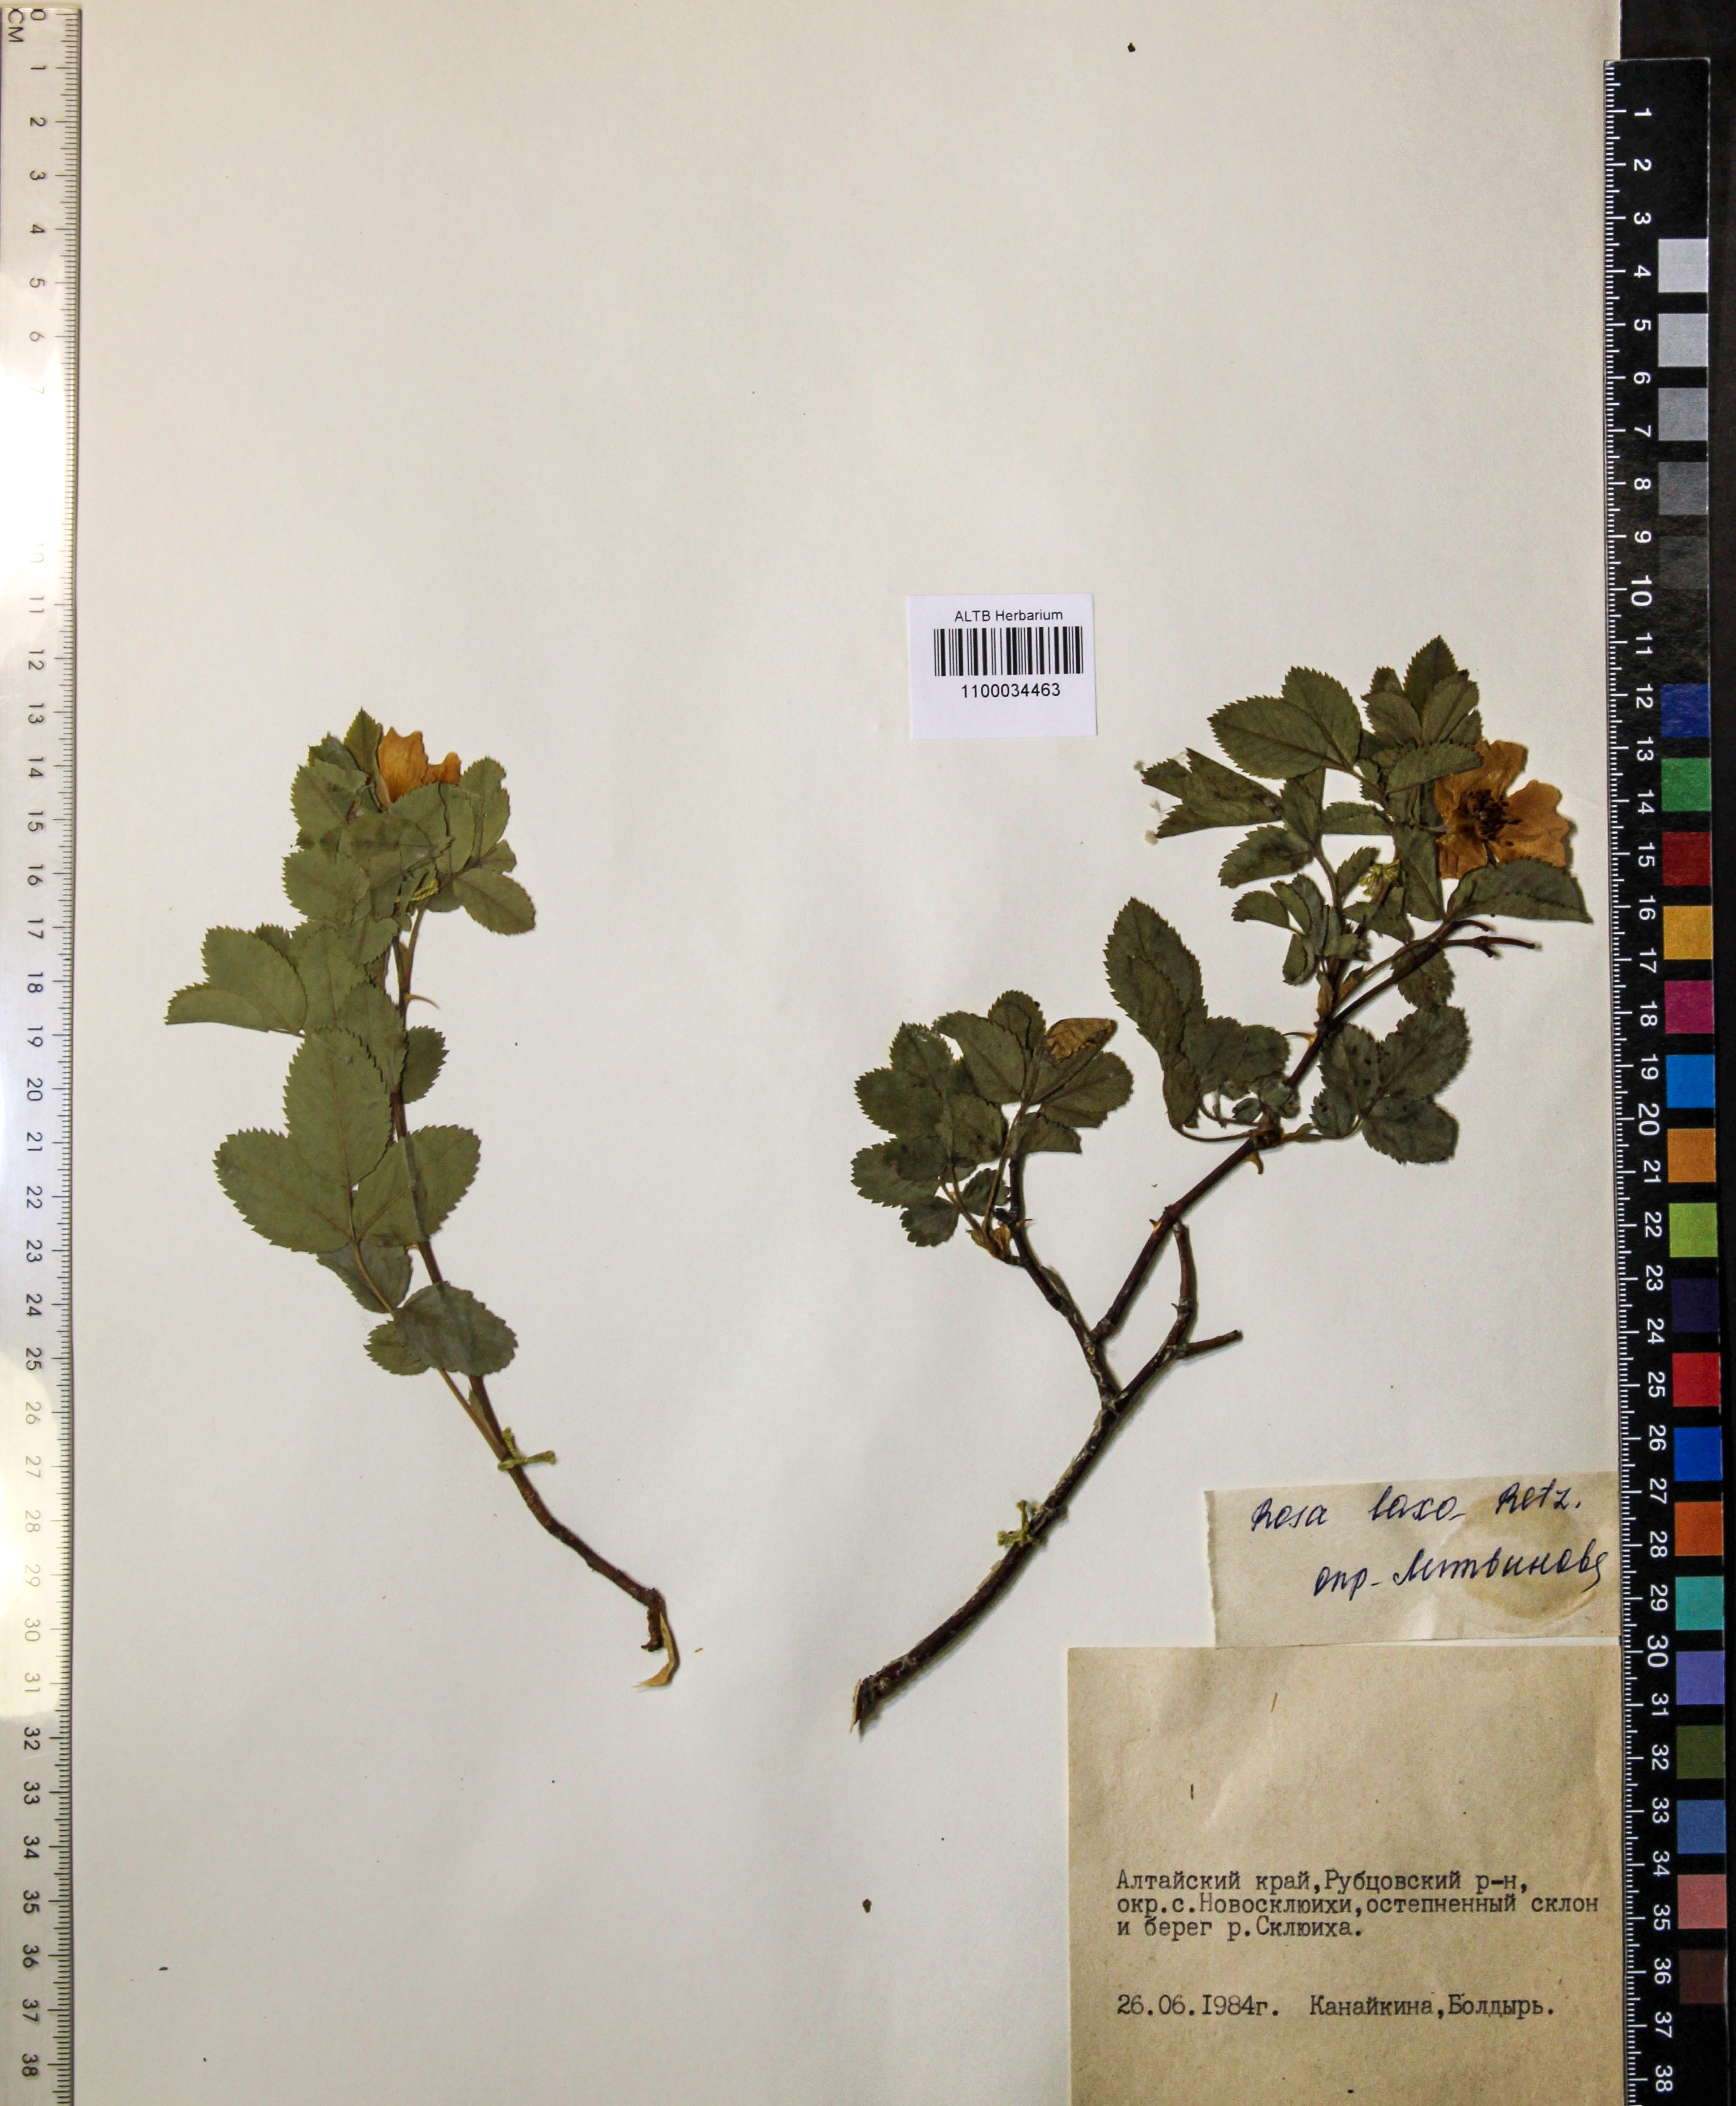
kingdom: Plantae
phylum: Tracheophyta
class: Magnoliopsida
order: Rosales
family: Rosaceae
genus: Rosa
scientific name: Rosa laxa
